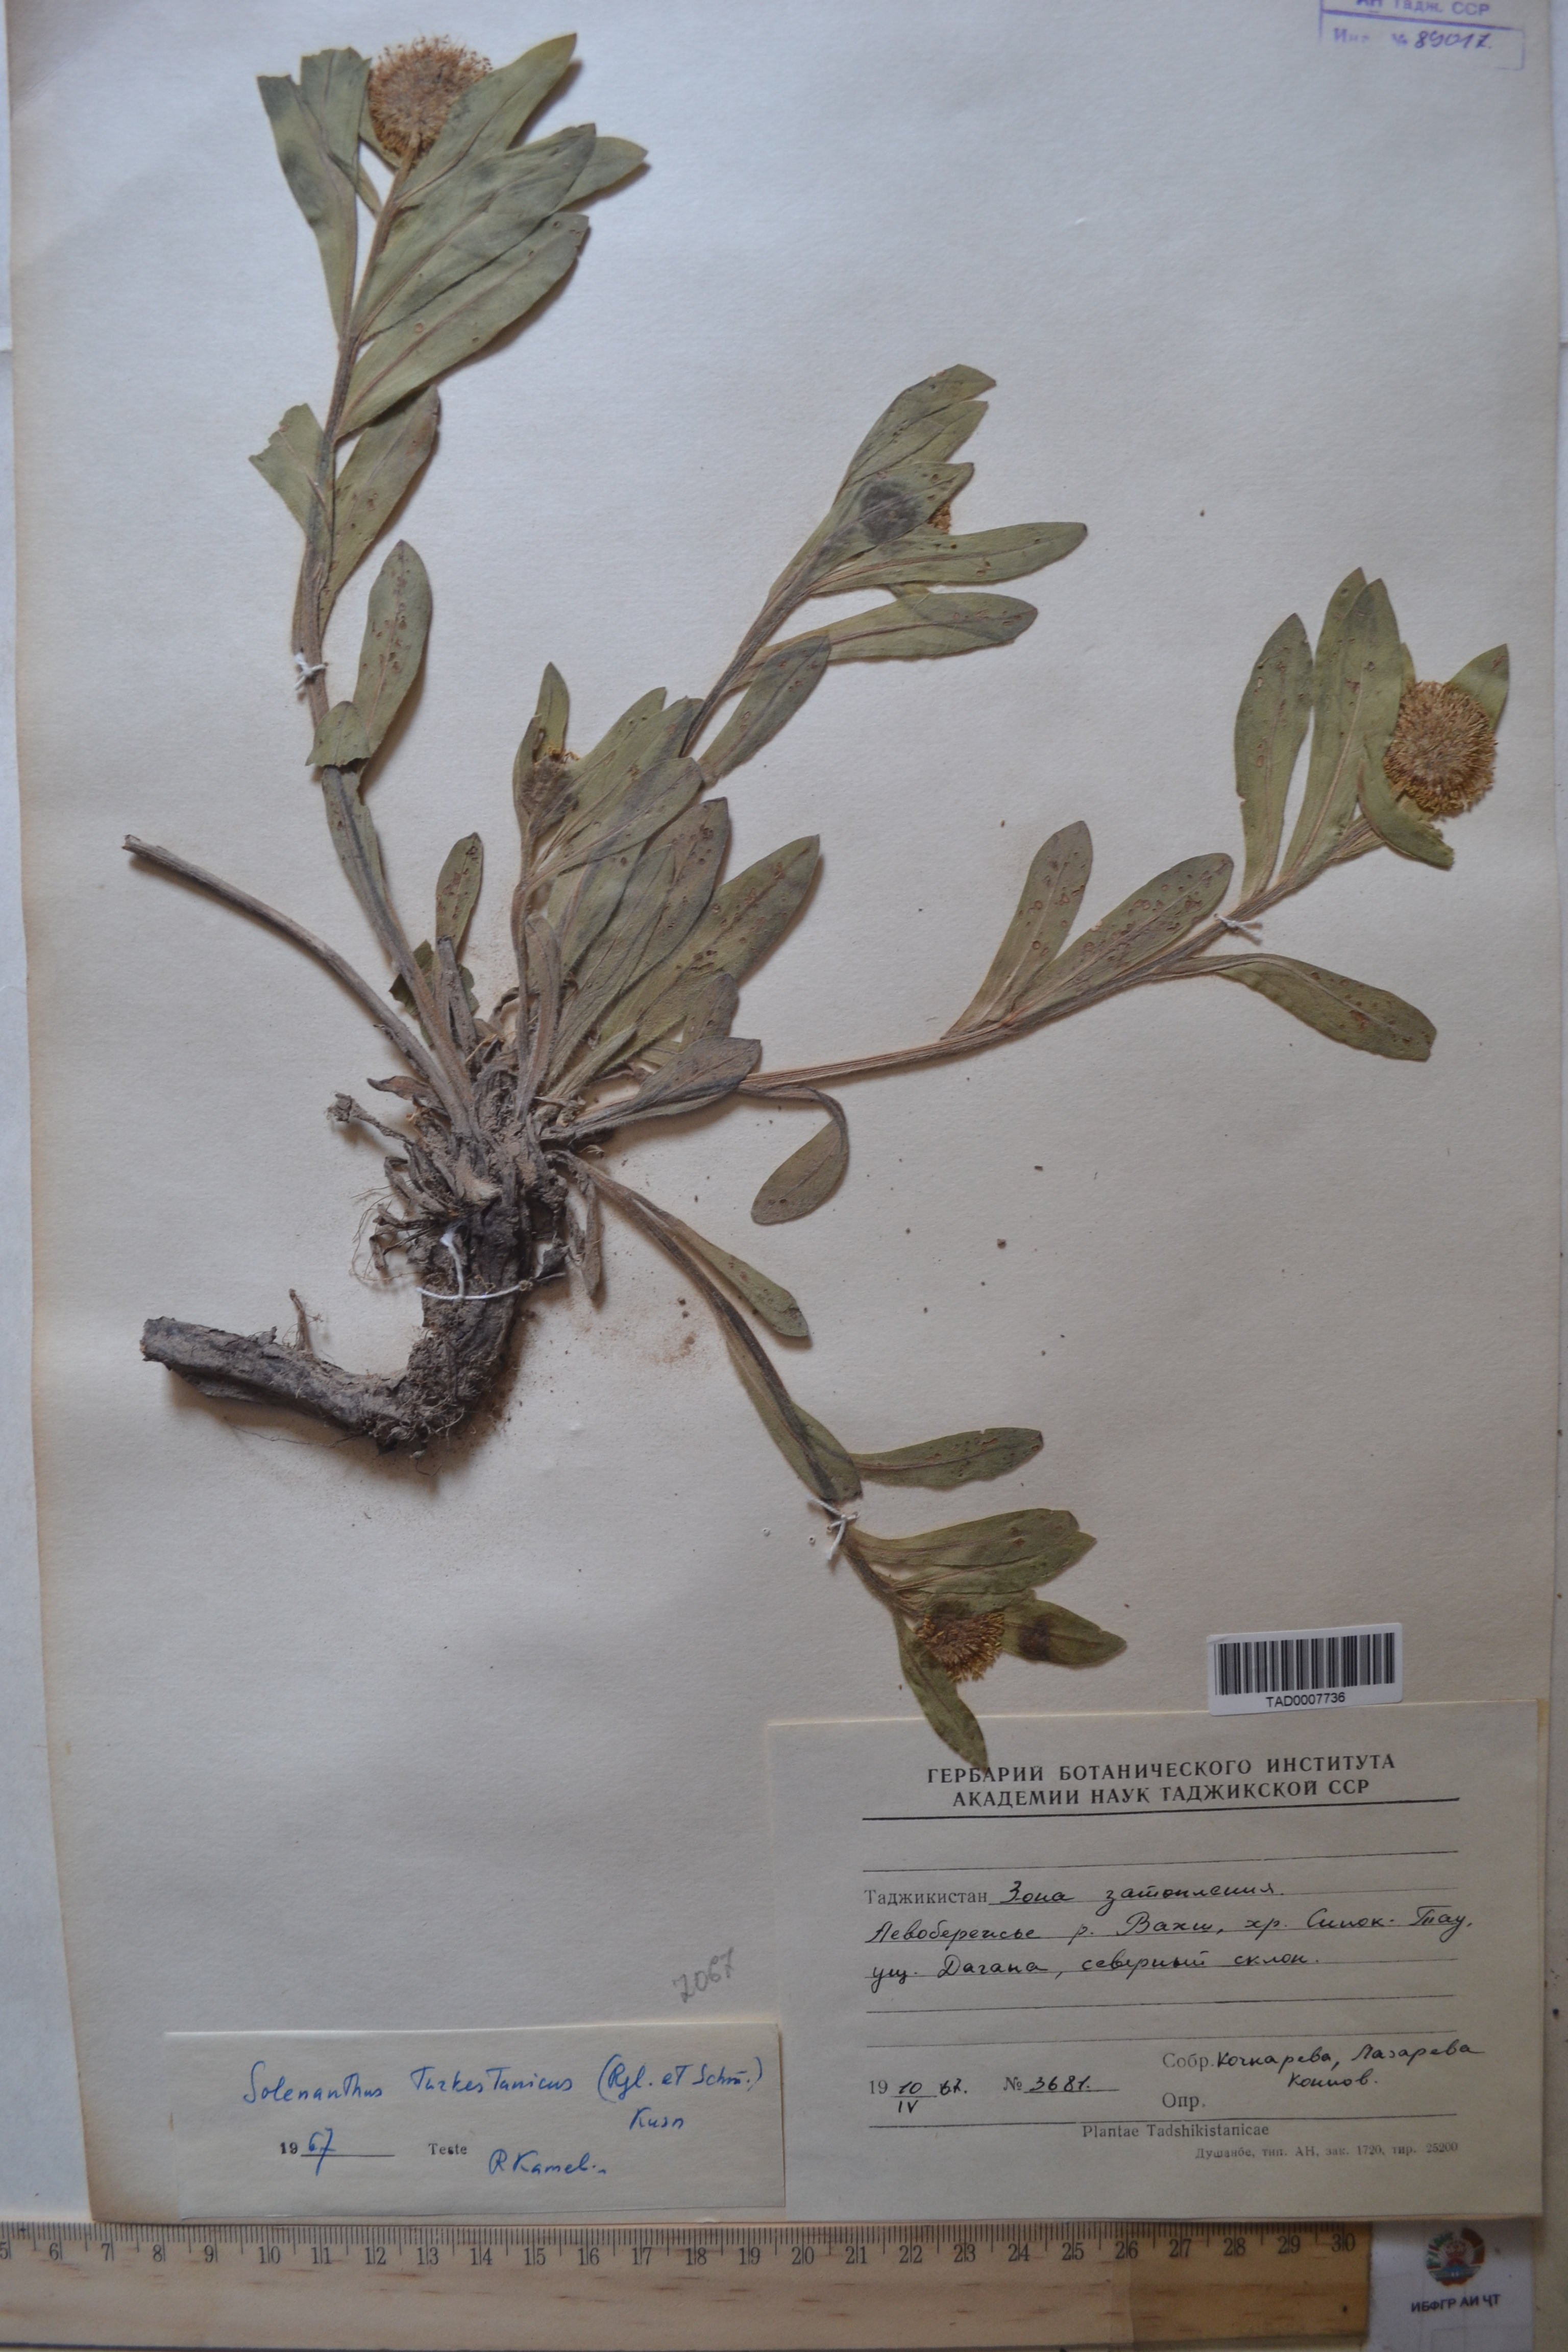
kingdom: Plantae
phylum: Tracheophyta
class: Magnoliopsida
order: Boraginales
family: Boraginaceae
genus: Solenanthus
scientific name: Solenanthus turkestanicus
